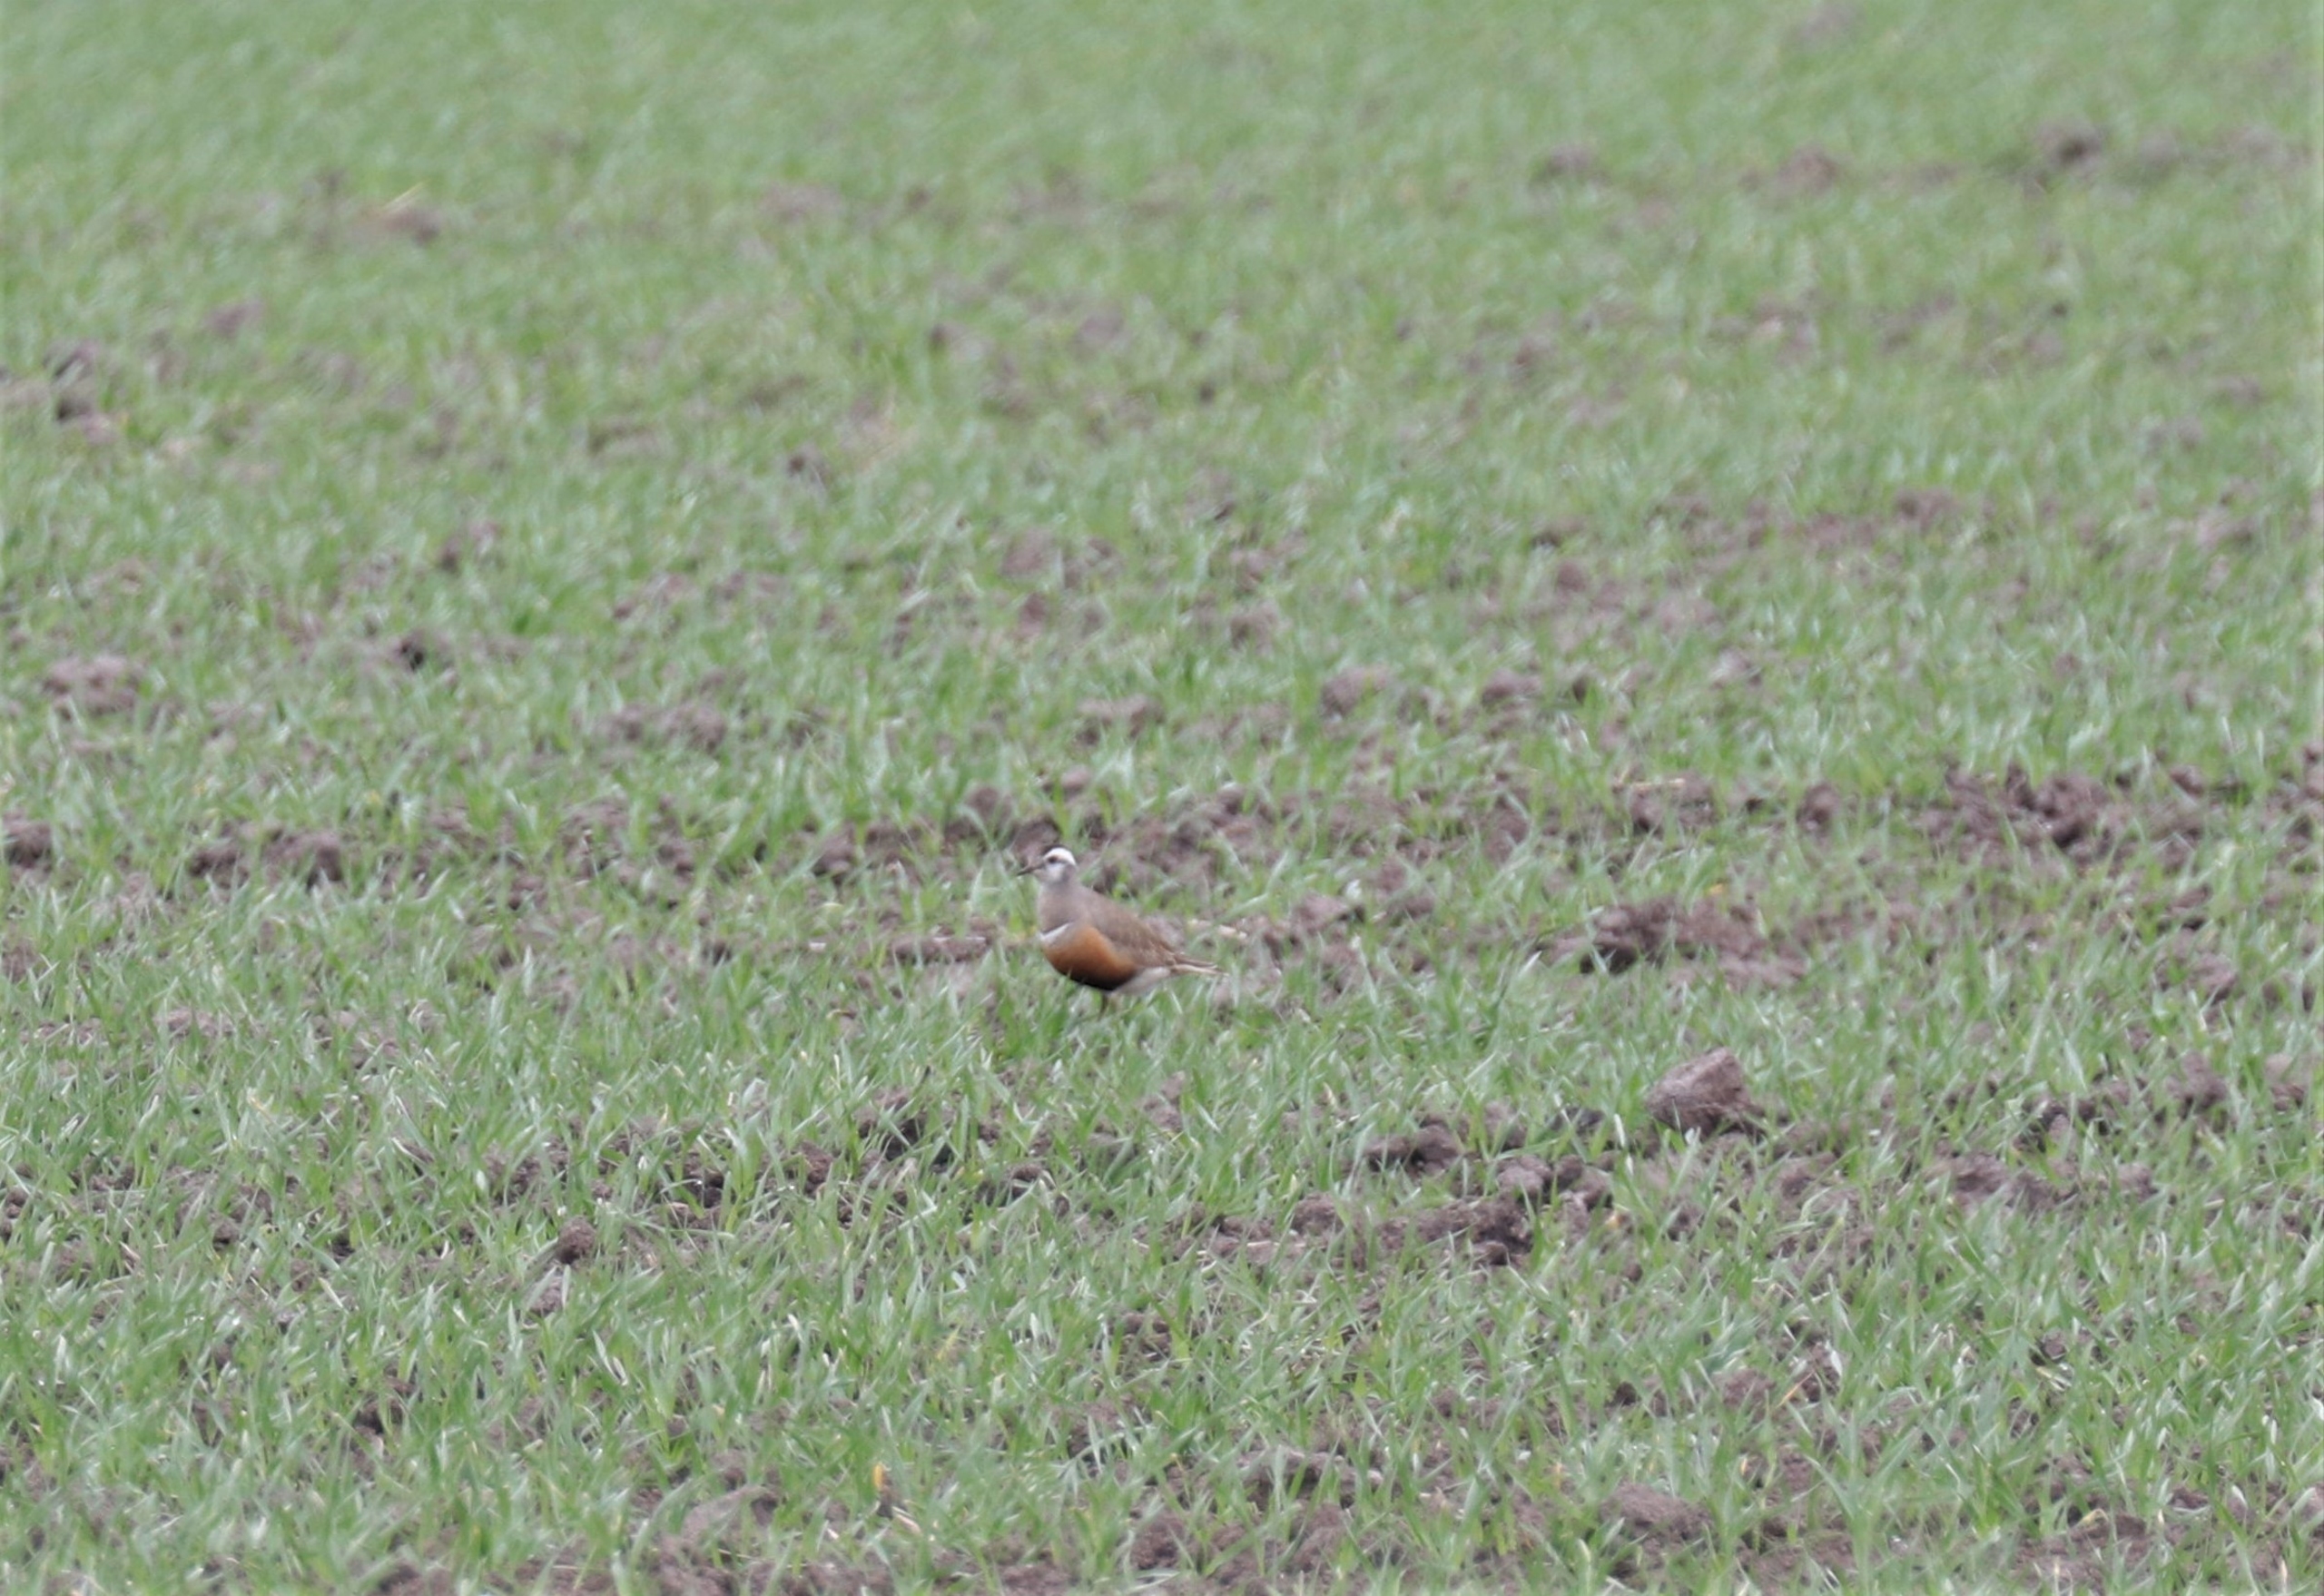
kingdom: Animalia
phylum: Chordata
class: Aves
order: Charadriiformes
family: Charadriidae
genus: Charadrius
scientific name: Charadrius morinellus
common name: Pomeransfugl
